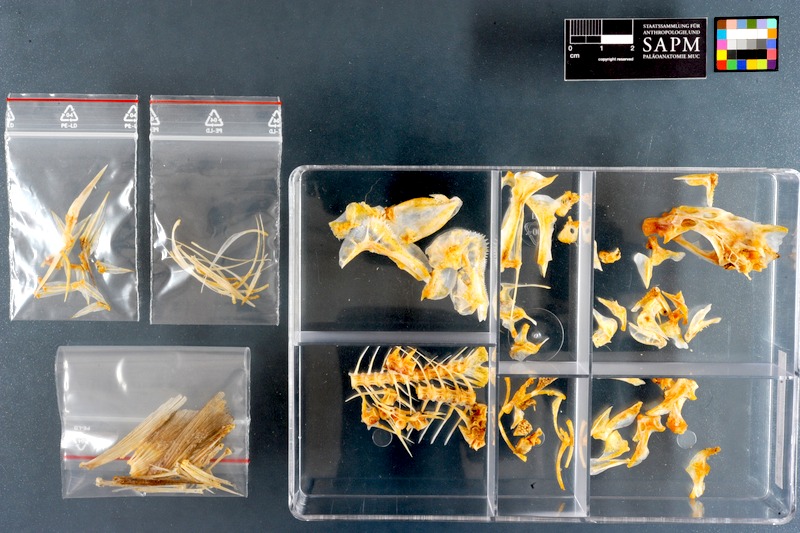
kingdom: Animalia
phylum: Chordata
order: Perciformes
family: Haemulidae
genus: Pomadasys
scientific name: Pomadasys olivaceus
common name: Olive grunt
